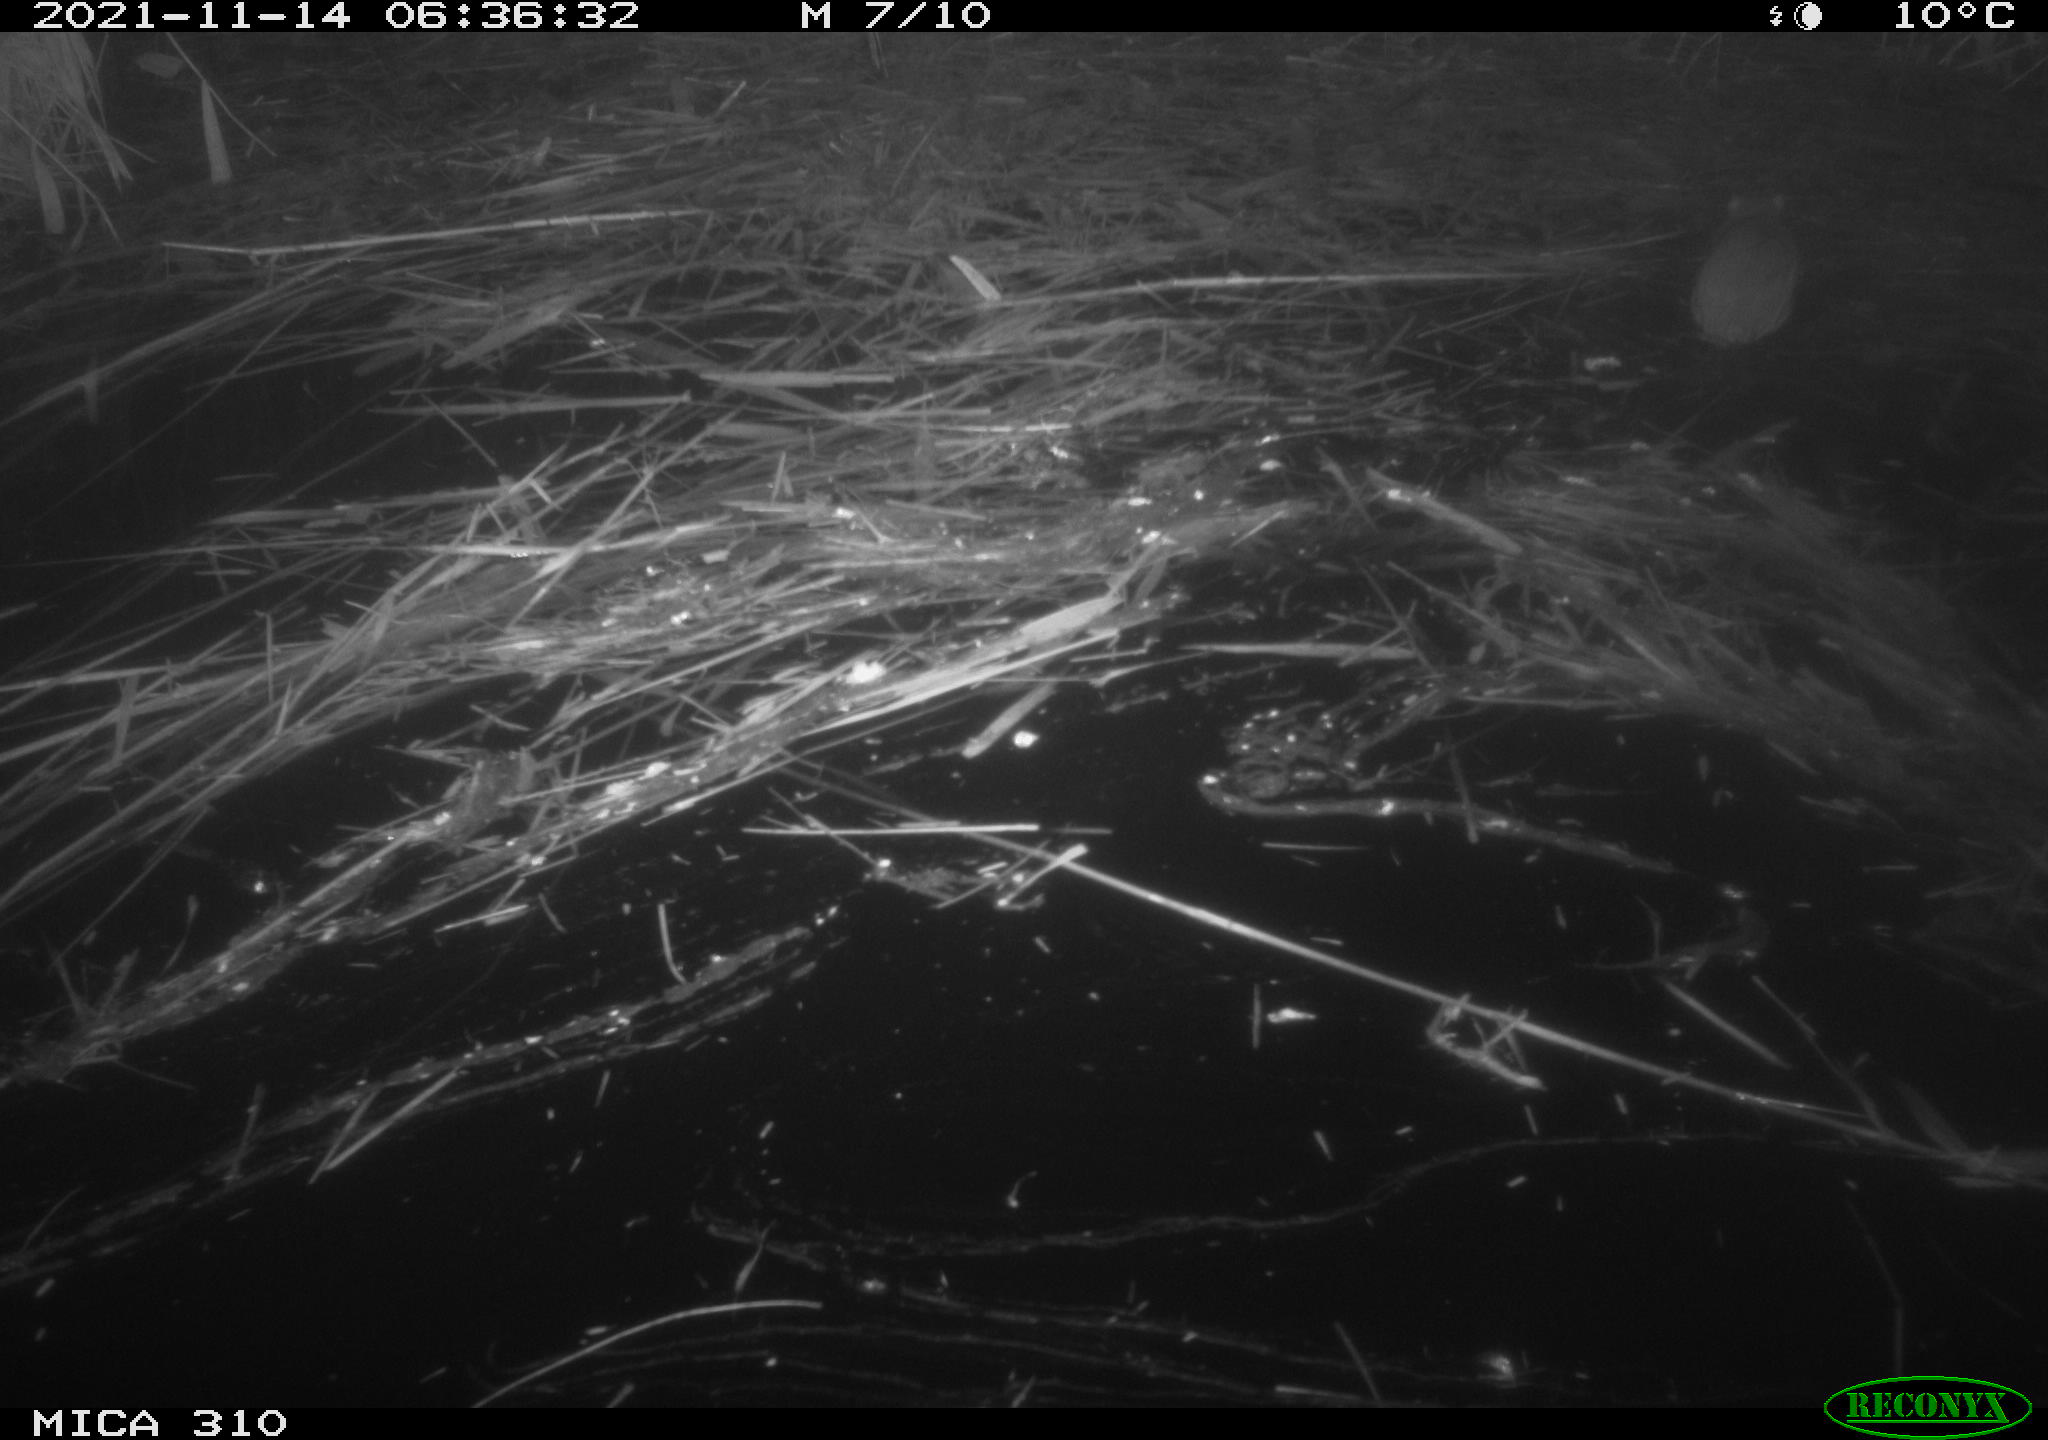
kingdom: Animalia
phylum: Chordata
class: Mammalia
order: Rodentia
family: Muridae
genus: Rattus
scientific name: Rattus norvegicus
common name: Brown rat
